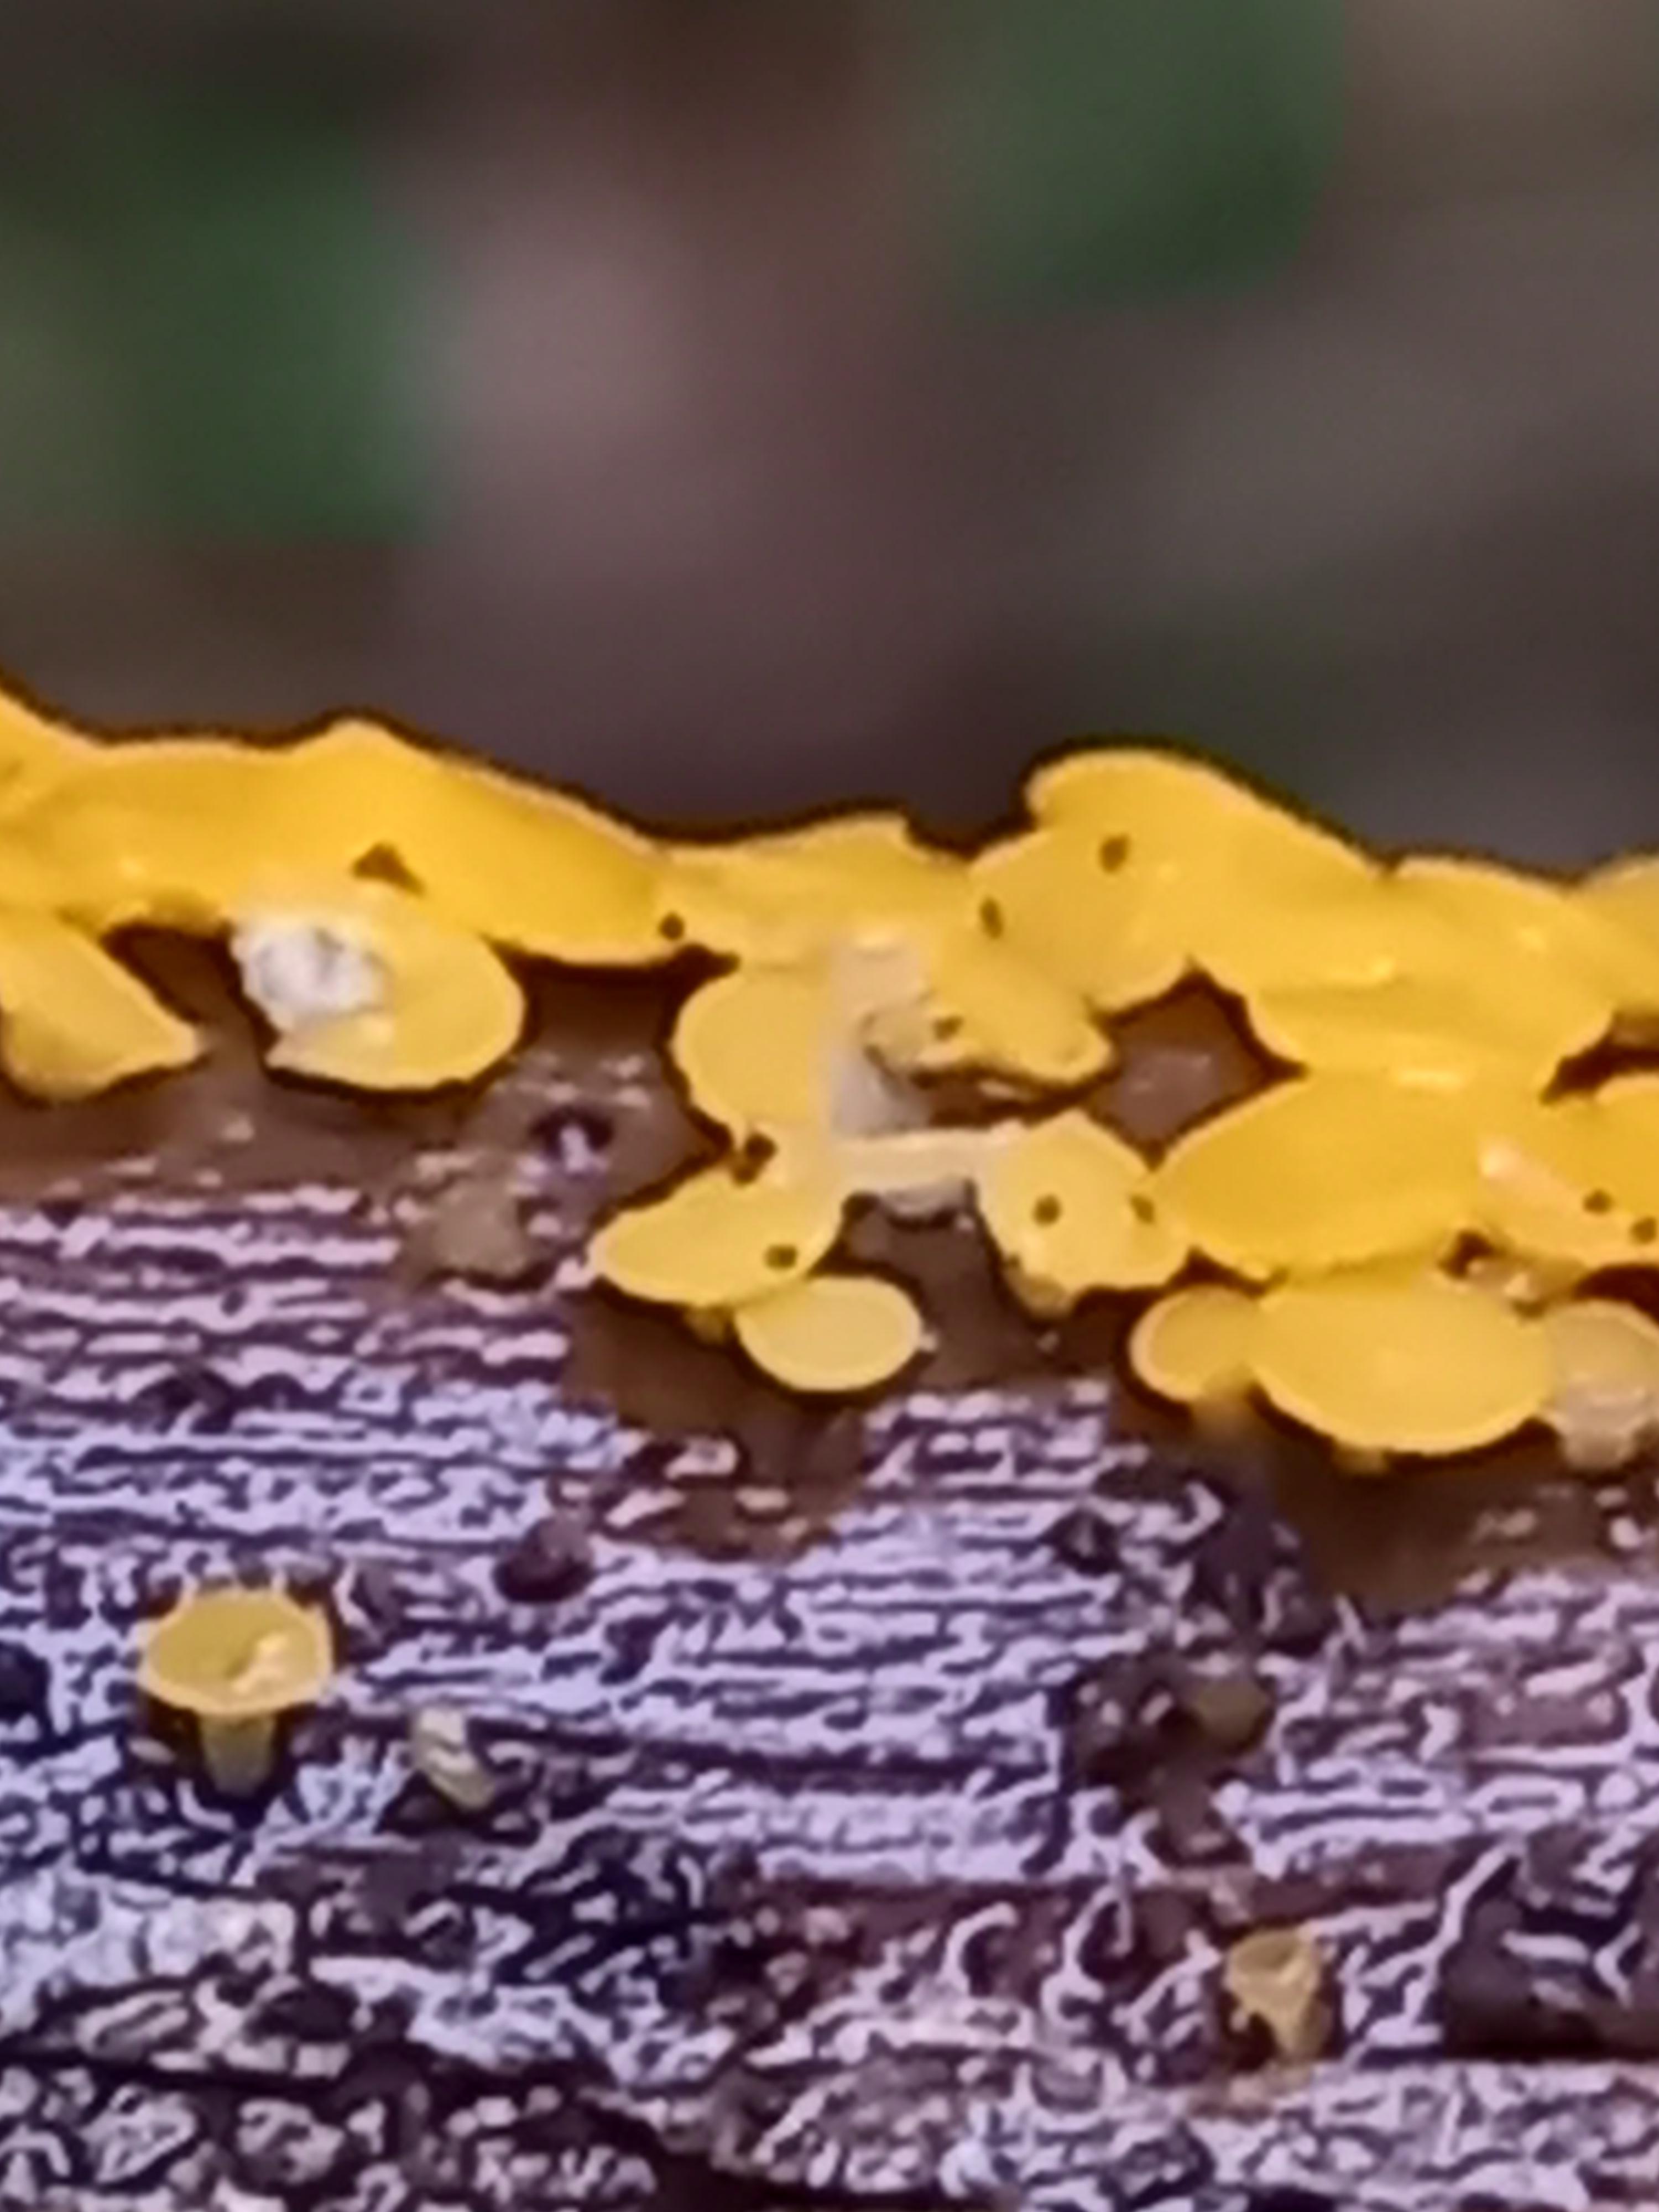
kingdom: Fungi
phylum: Ascomycota
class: Leotiomycetes
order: Helotiales
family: Pezizellaceae
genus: Calycina
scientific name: Calycina citrina
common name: almindelig gulskive
